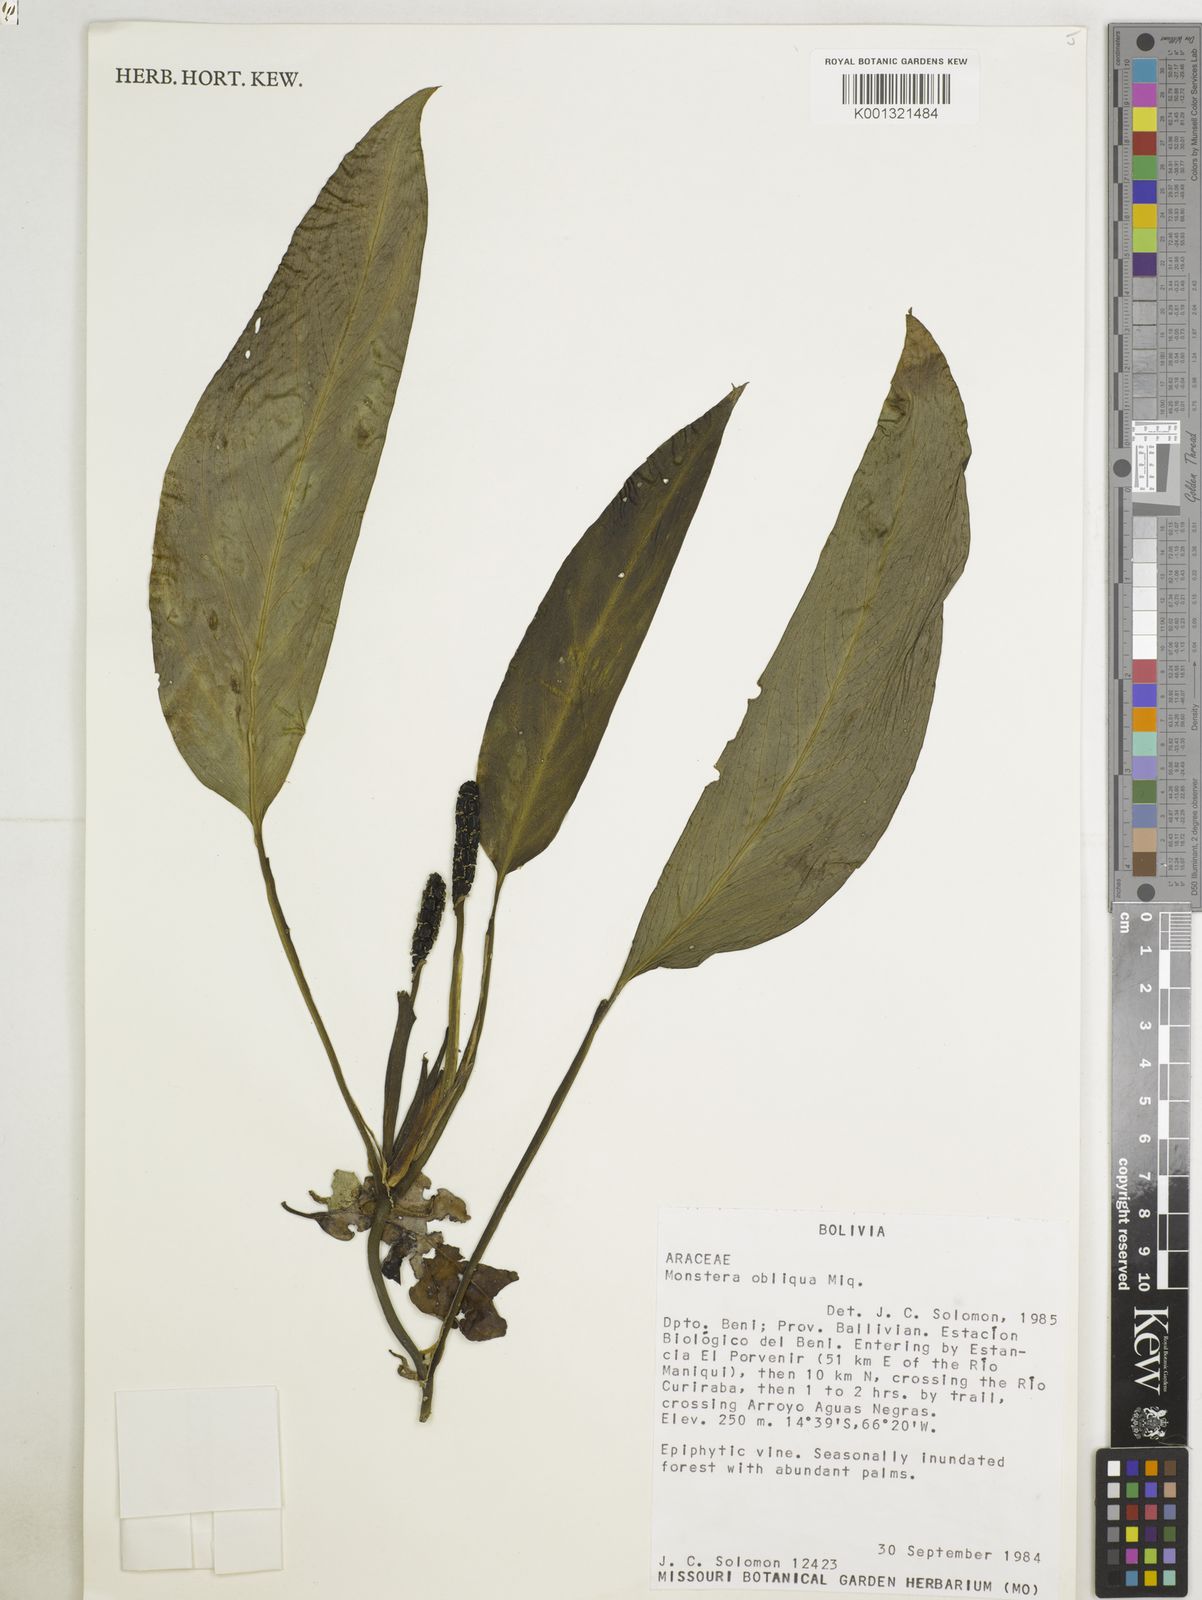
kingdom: Plantae
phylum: Tracheophyta
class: Liliopsida
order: Alismatales
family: Araceae
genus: Monstera
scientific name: Monstera obliqua
